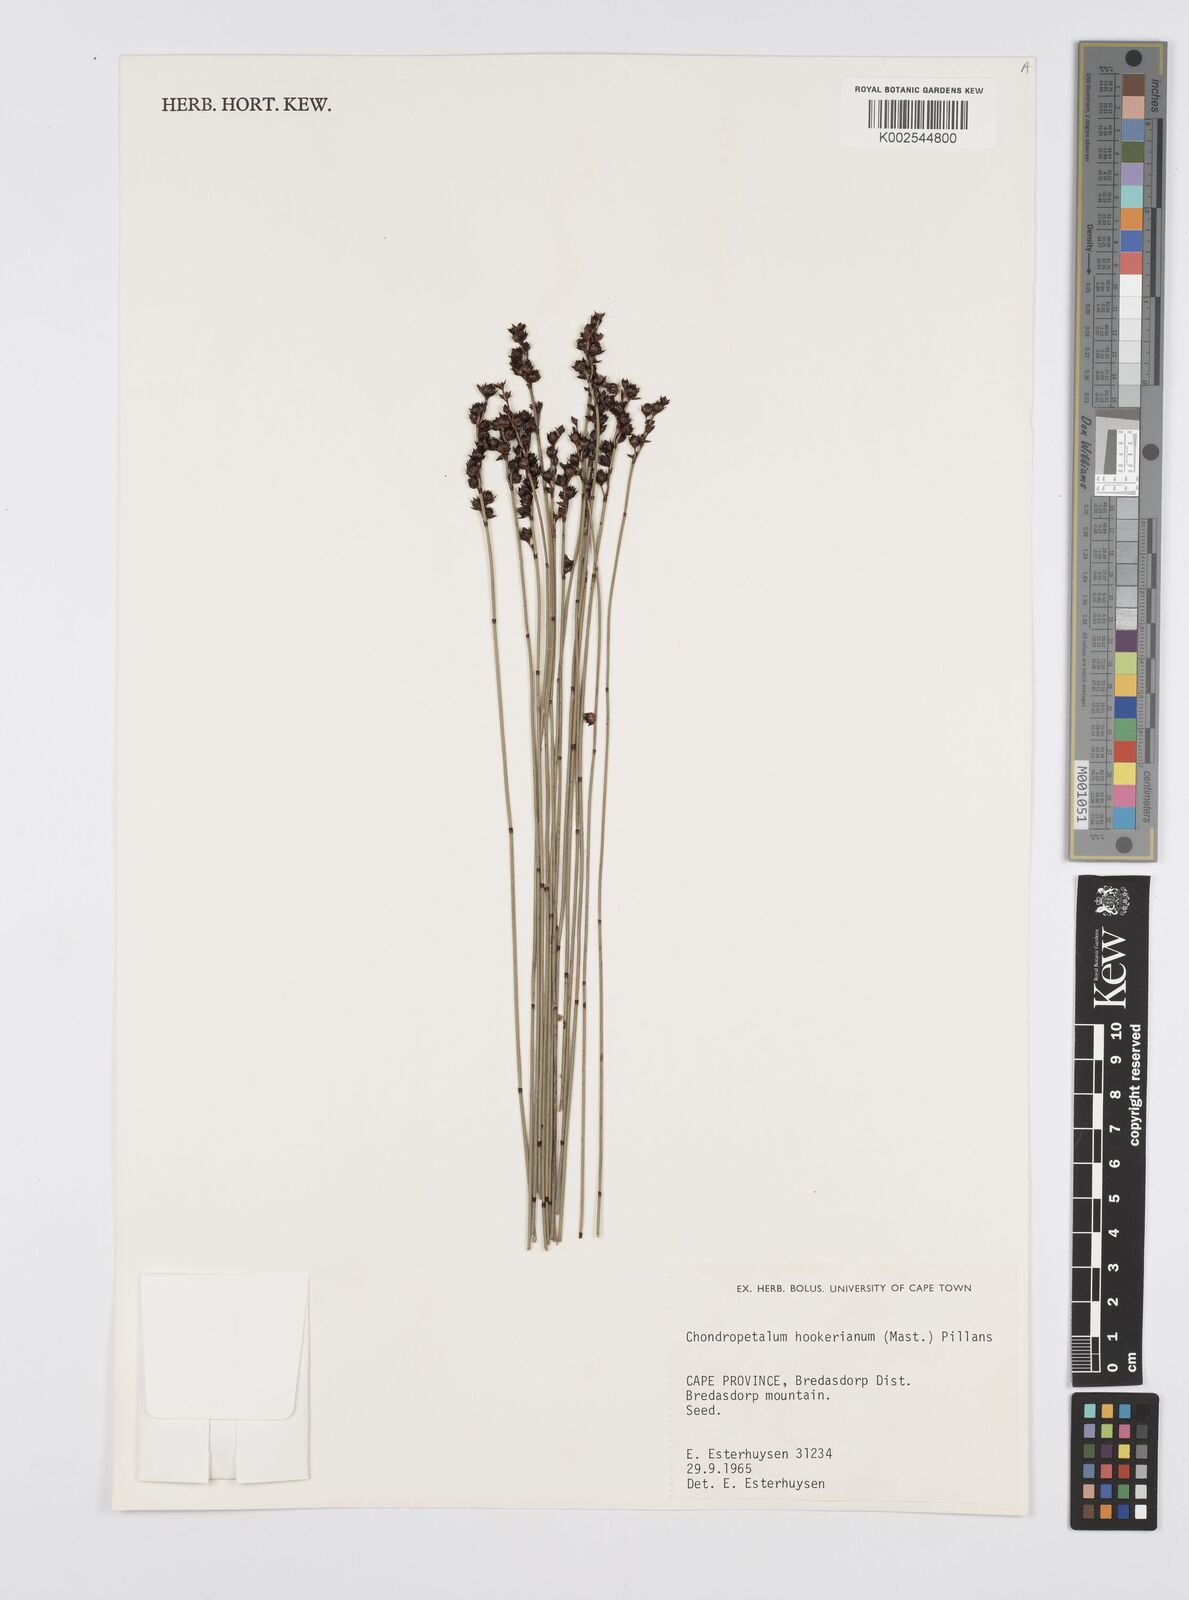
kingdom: Plantae
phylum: Tracheophyta
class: Liliopsida
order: Poales
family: Restionaceae
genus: Elegia
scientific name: Elegia hookeriana
